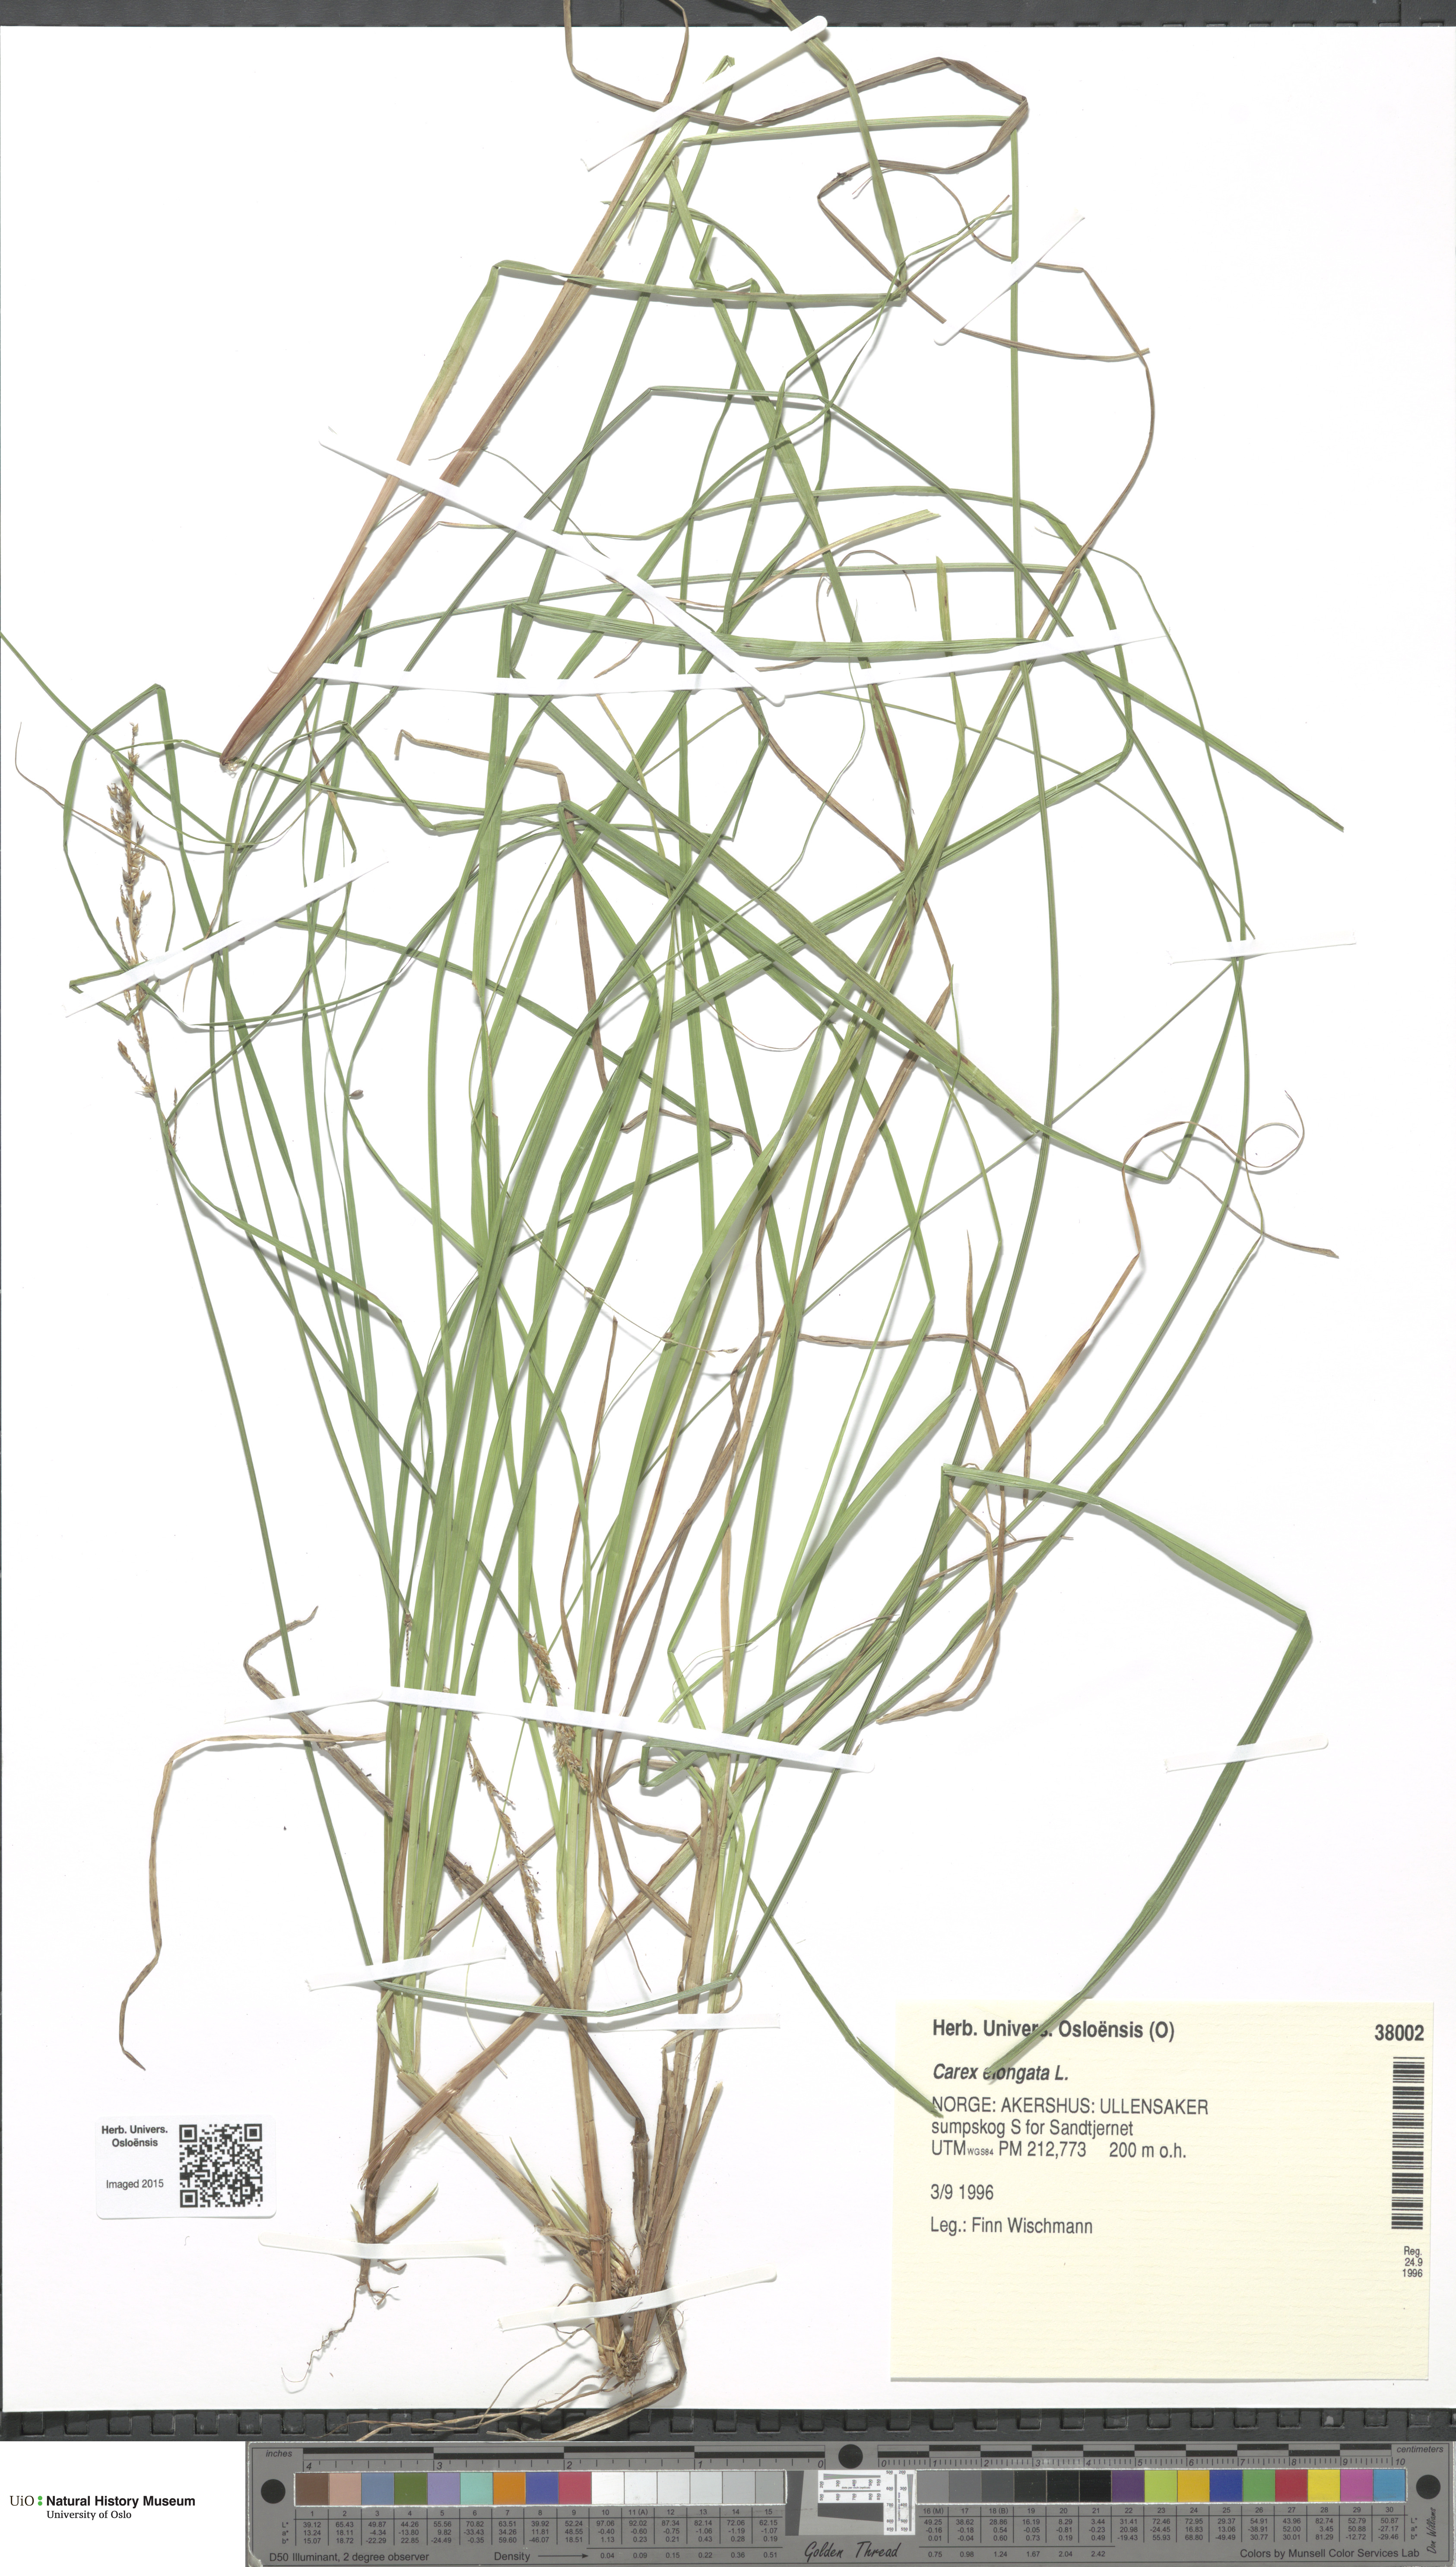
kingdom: Plantae
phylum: Tracheophyta
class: Liliopsida
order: Poales
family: Cyperaceae
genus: Carex
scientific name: Carex elongata
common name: Elongated sedge
